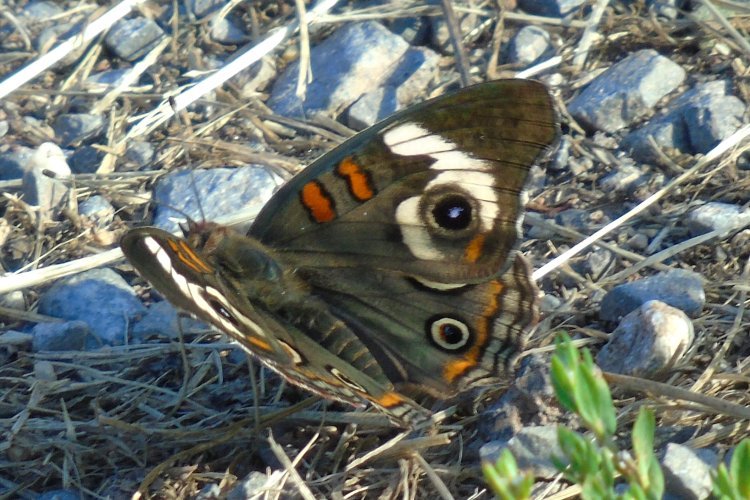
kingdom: Animalia
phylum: Arthropoda
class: Insecta
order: Lepidoptera
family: Nymphalidae
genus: Junonia
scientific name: Junonia coenia
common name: Common Buckeye
